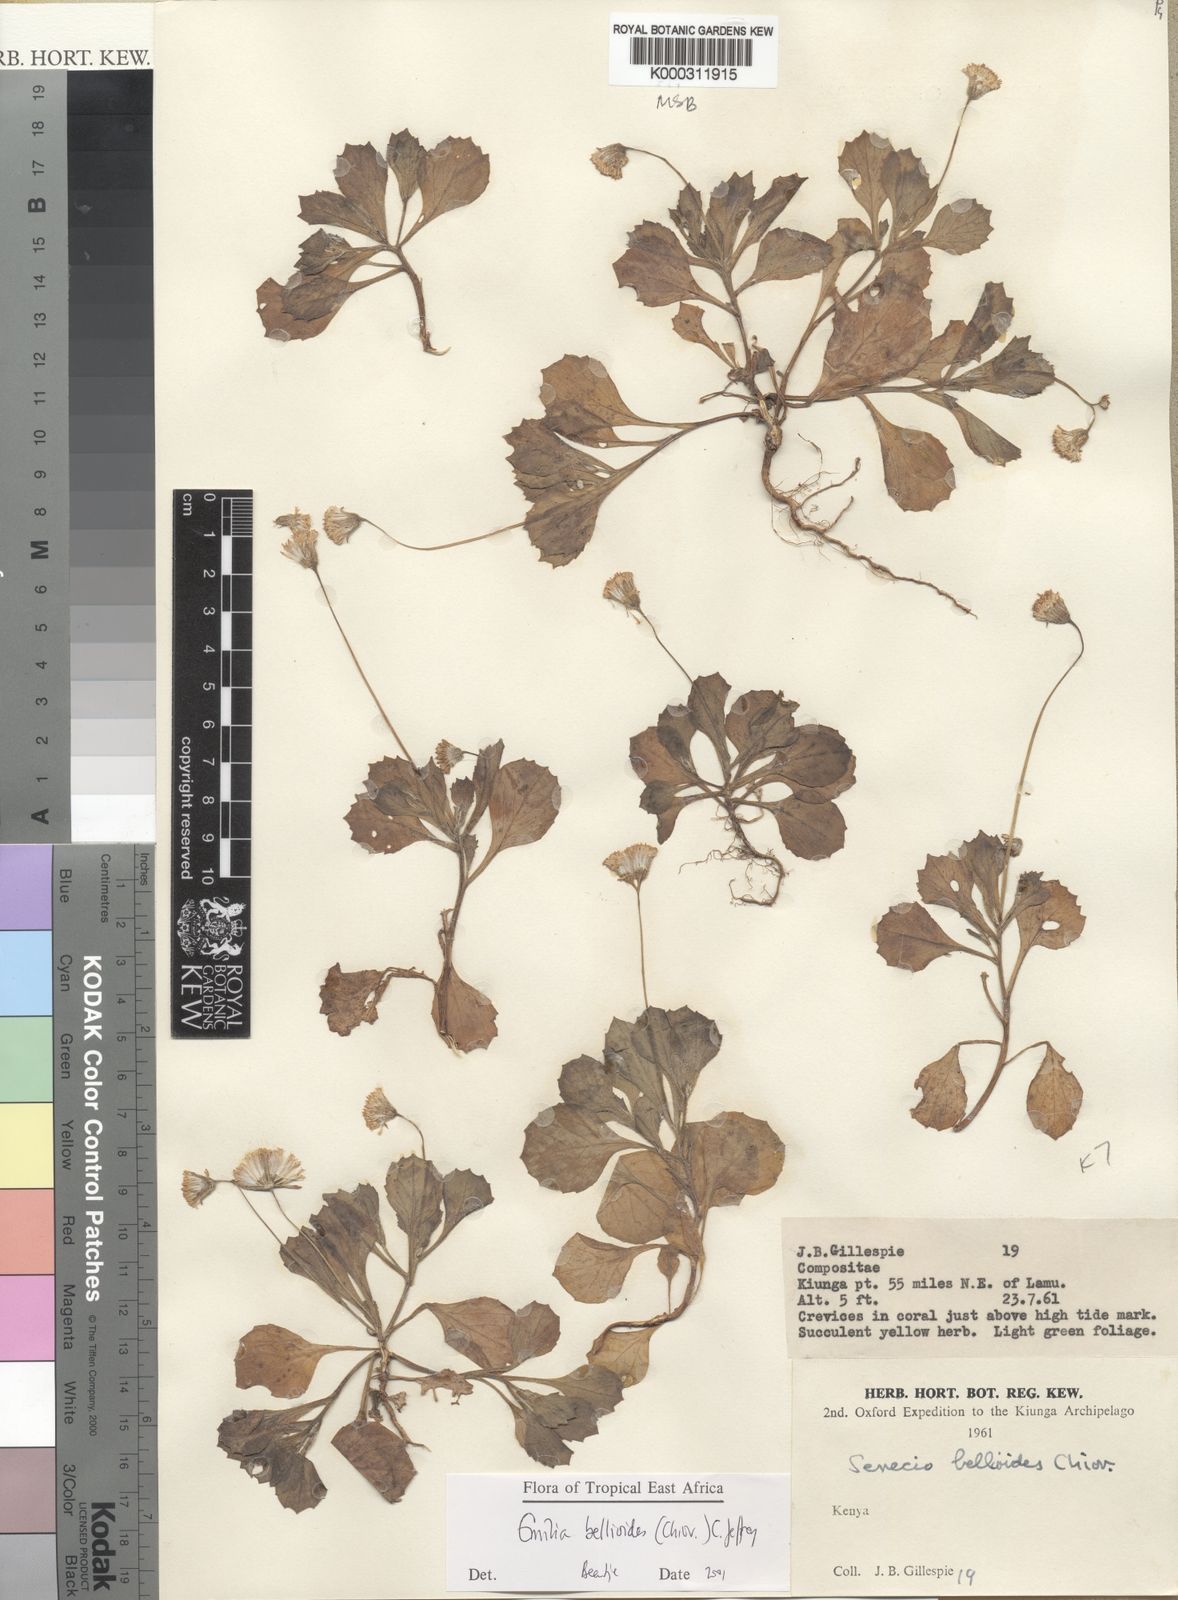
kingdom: Plantae
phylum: Tracheophyta
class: Magnoliopsida
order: Asterales
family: Asteraceae
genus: Emilia
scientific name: Emilia bellioides
